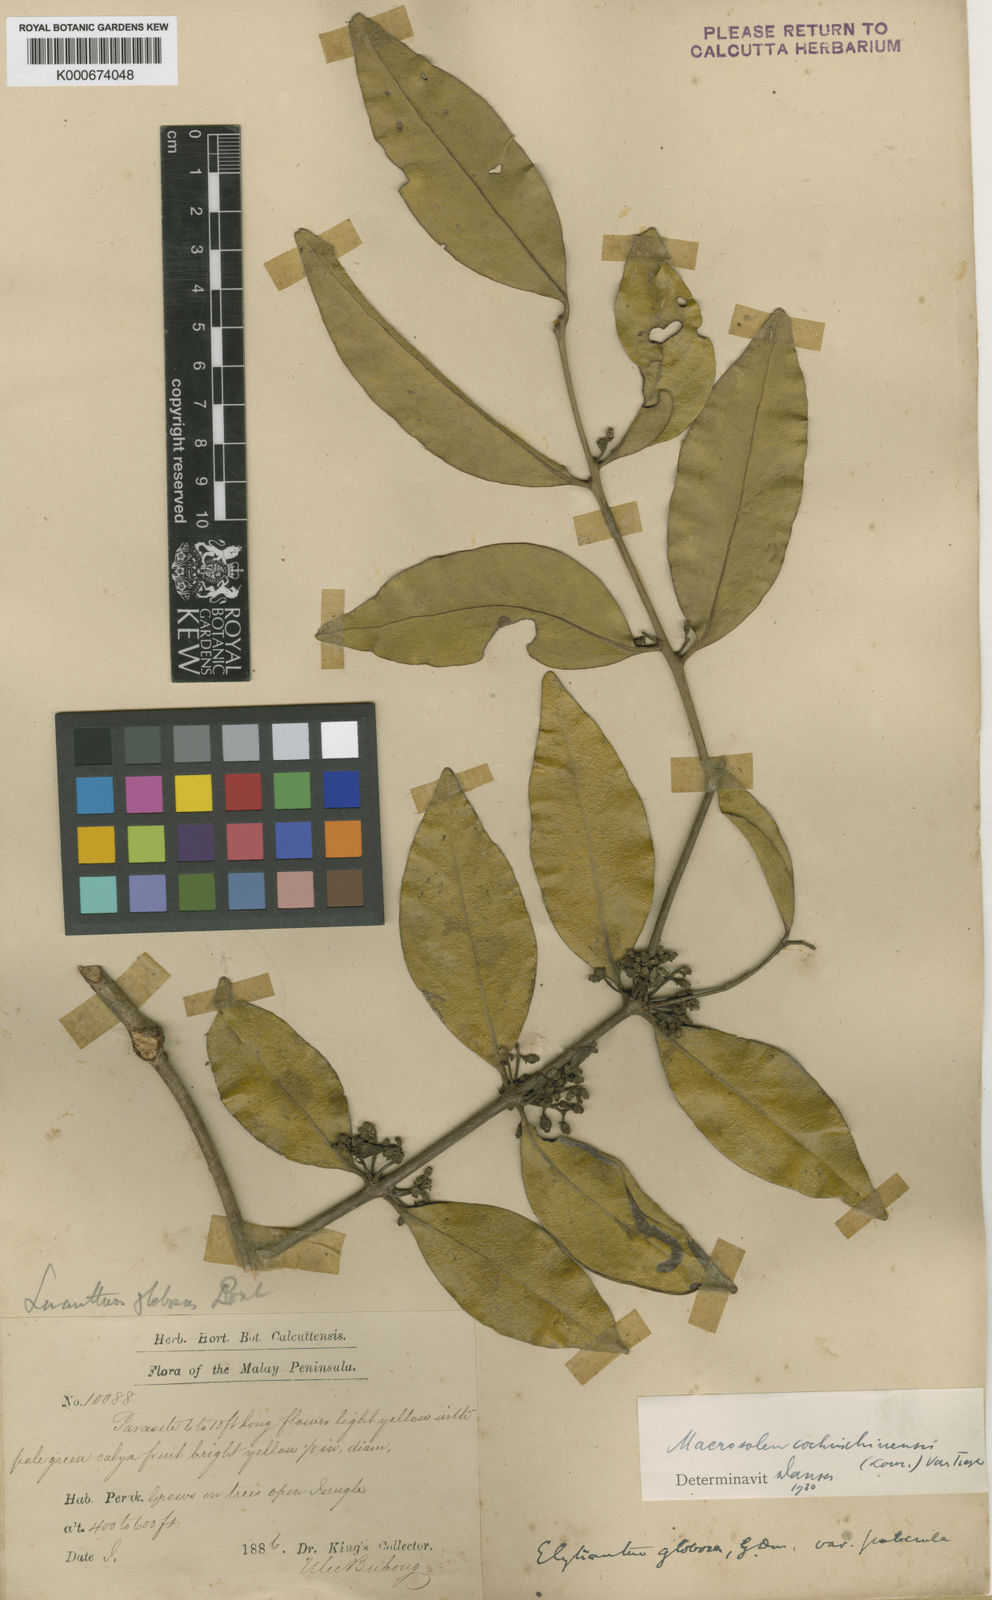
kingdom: Plantae
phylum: Tracheophyta
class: Magnoliopsida
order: Santalales
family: Loranthaceae
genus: Macrosolen
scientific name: Macrosolen cochinchinensis
